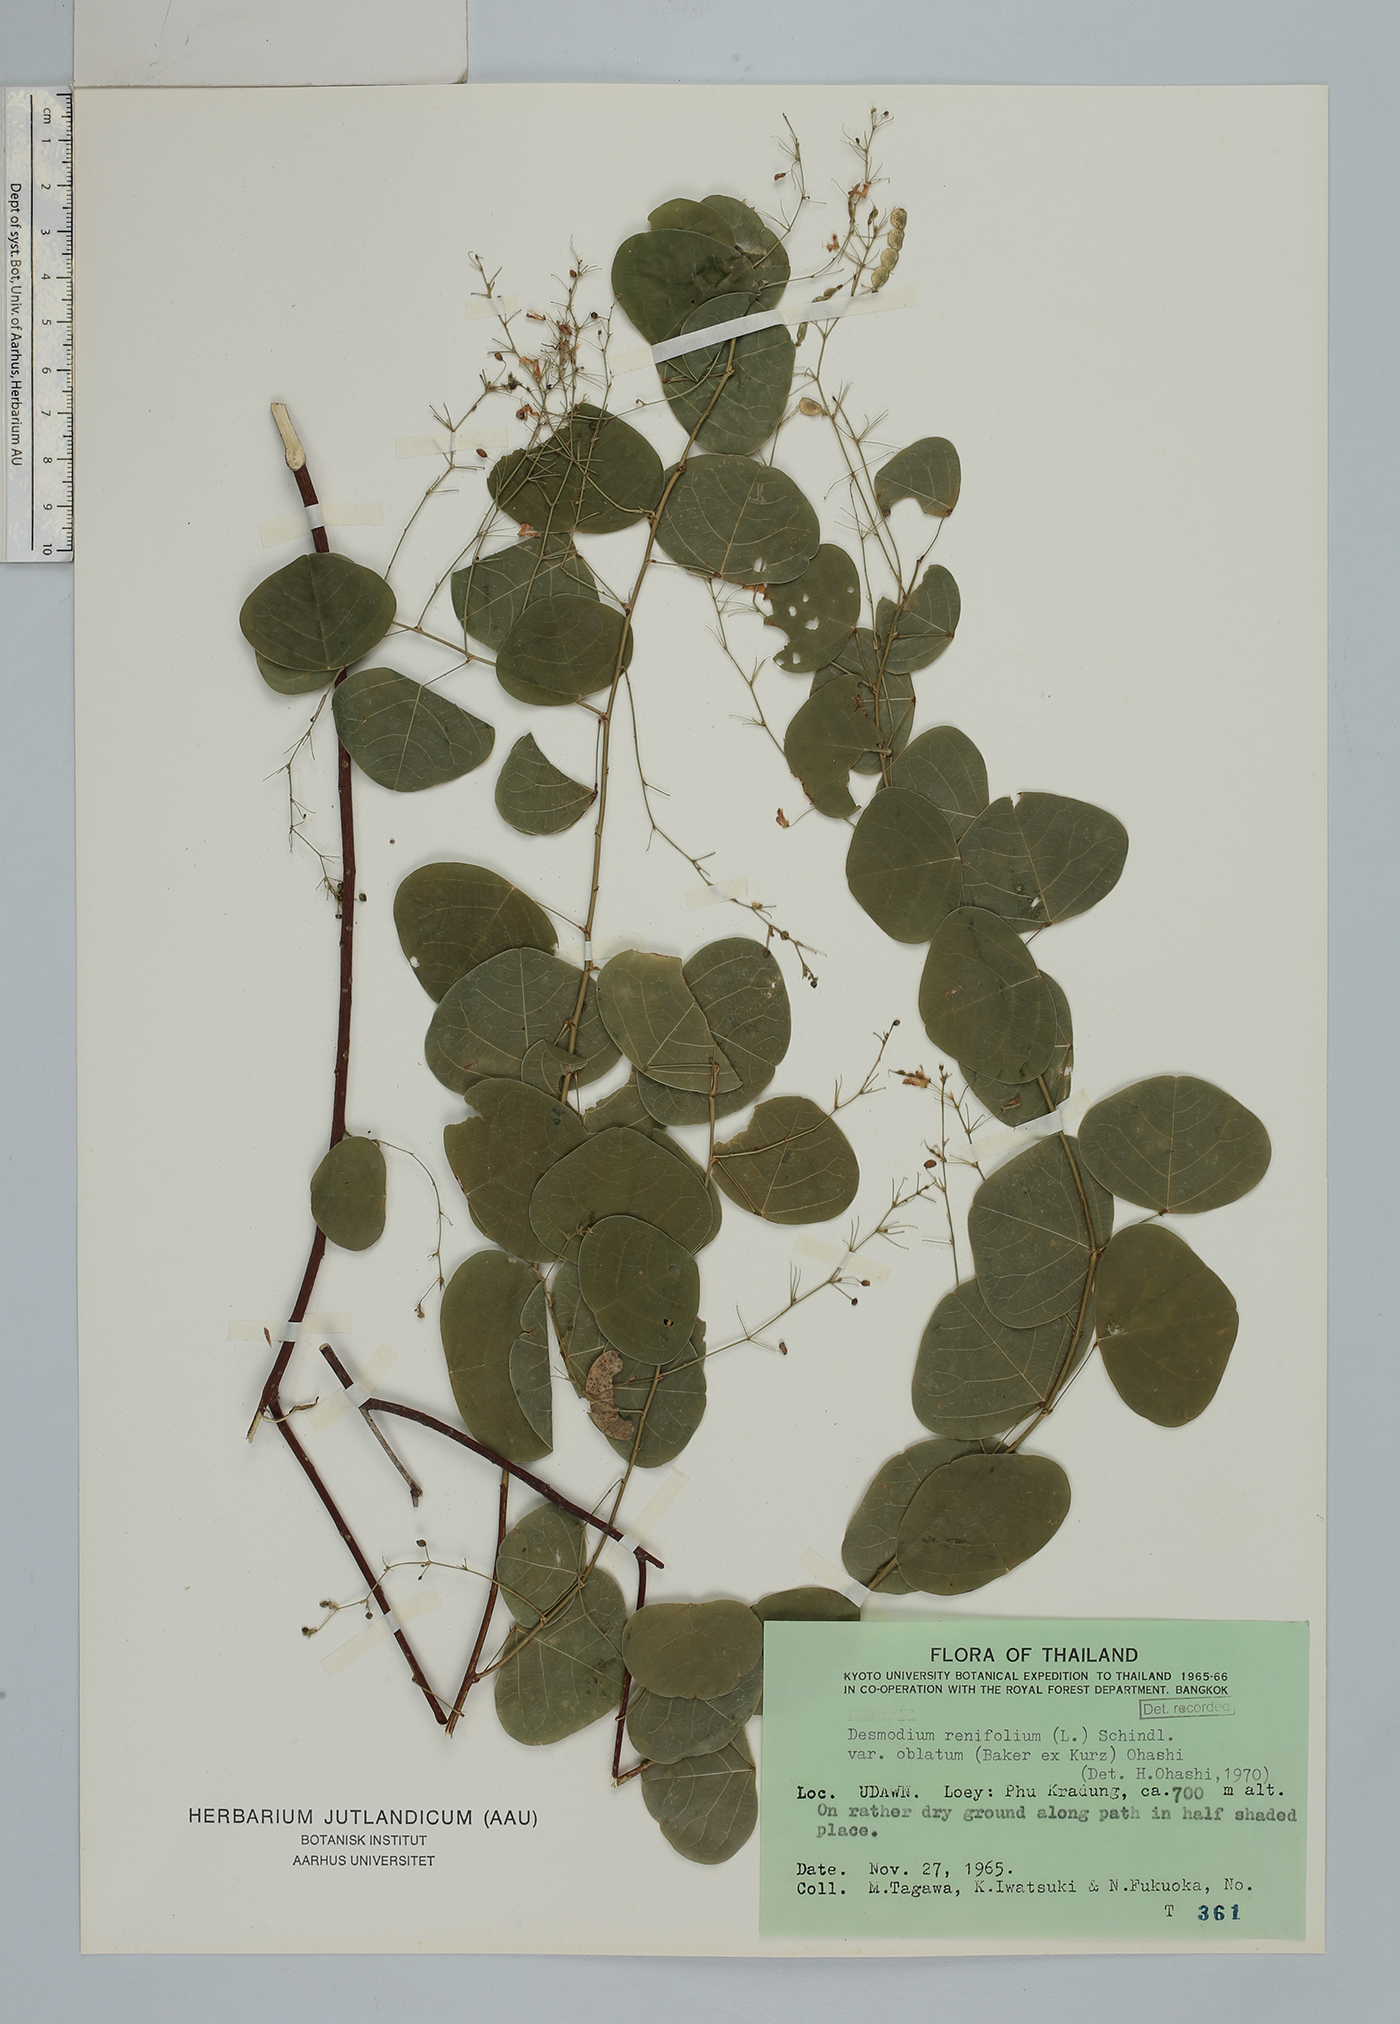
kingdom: Plantae
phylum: Tracheophyta
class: Magnoliopsida
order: Fabales
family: Fabaceae
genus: Huangtcia
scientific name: Huangtcia renifolia
